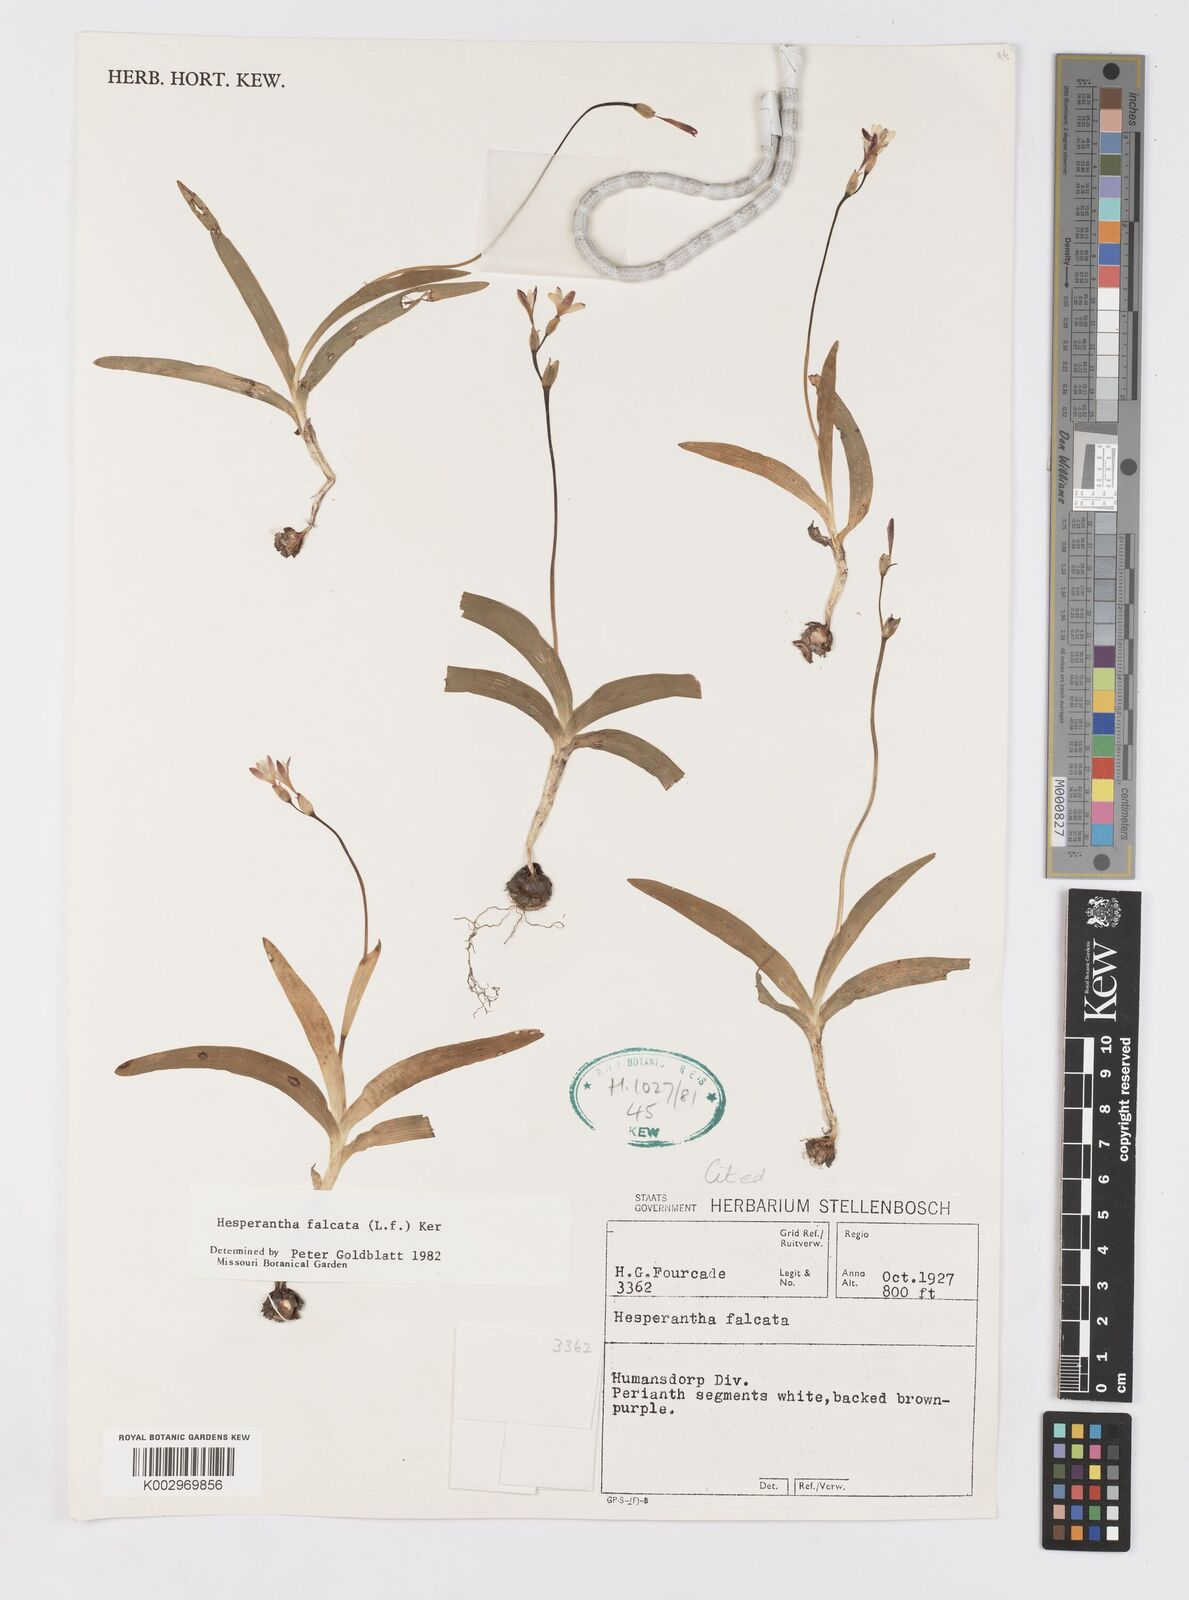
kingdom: Plantae
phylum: Tracheophyta
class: Liliopsida
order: Asparagales
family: Iridaceae
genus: Hesperantha
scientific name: Hesperantha falcata
